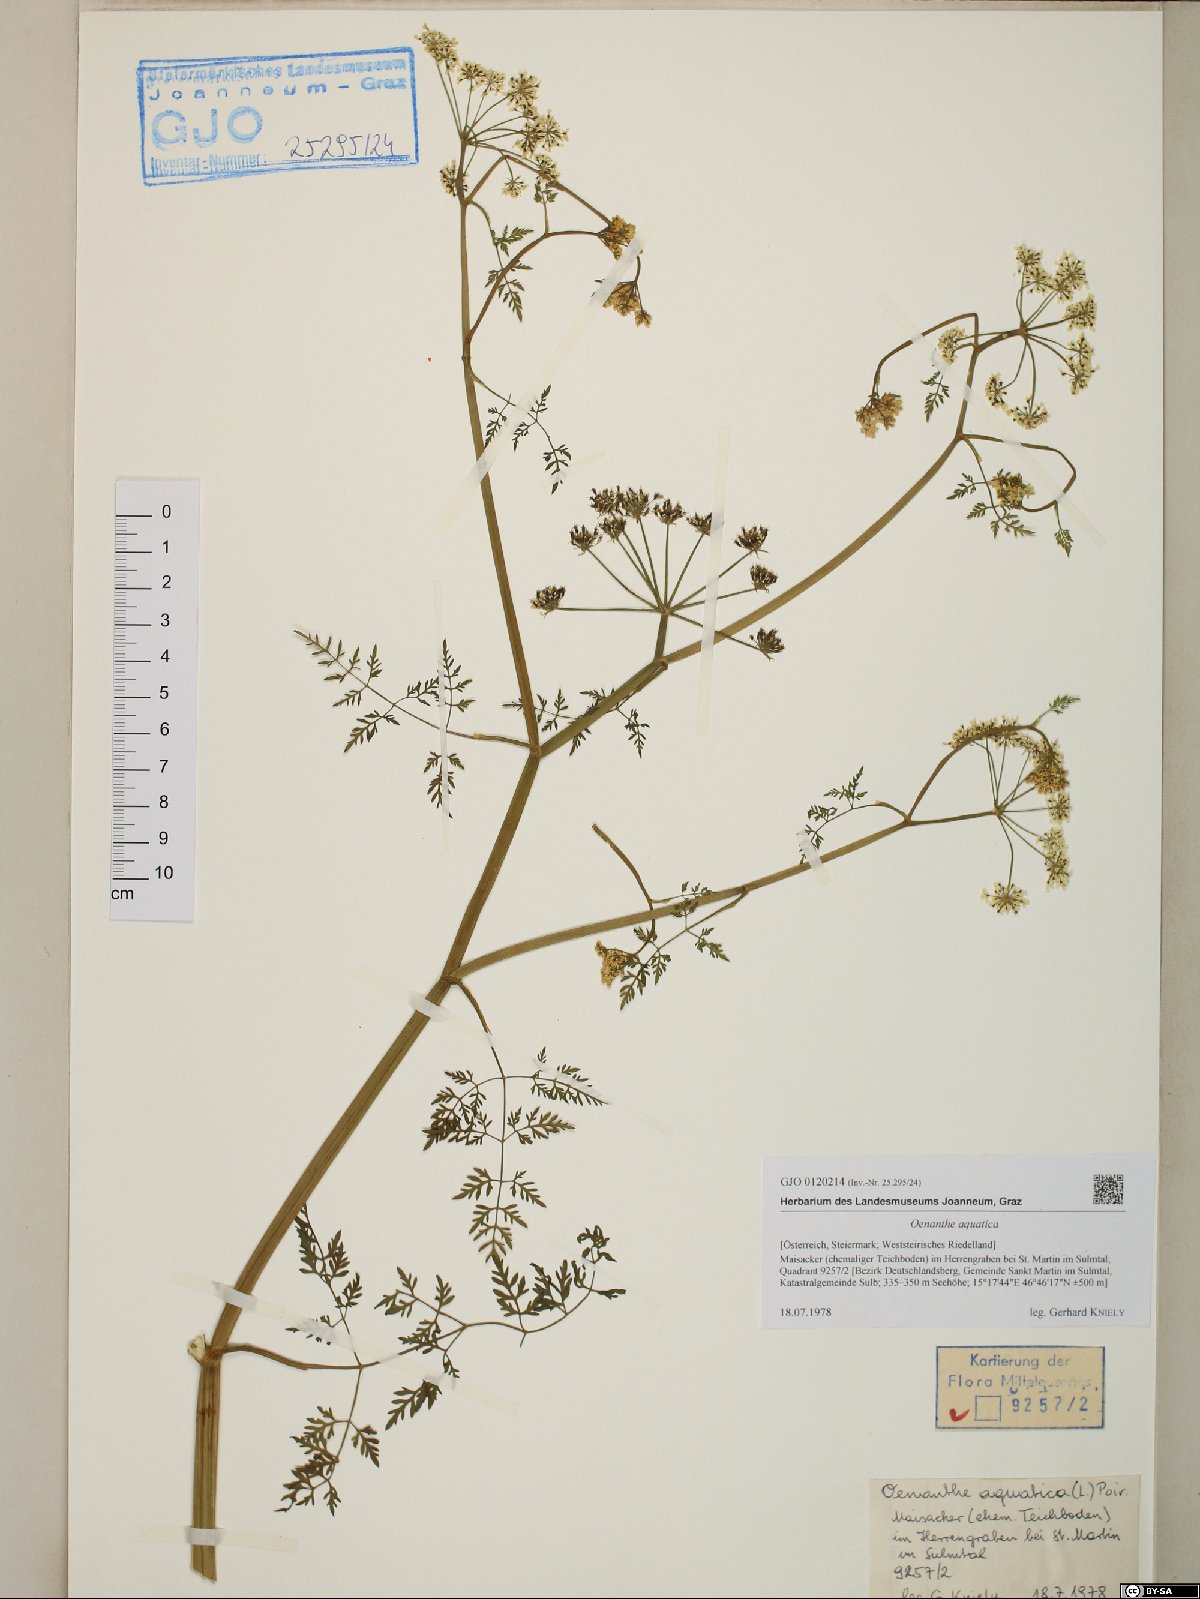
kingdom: Plantae
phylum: Tracheophyta
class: Magnoliopsida
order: Apiales
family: Apiaceae
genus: Oenanthe
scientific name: Oenanthe aquatica
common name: Fine-leaved water-dropwort
